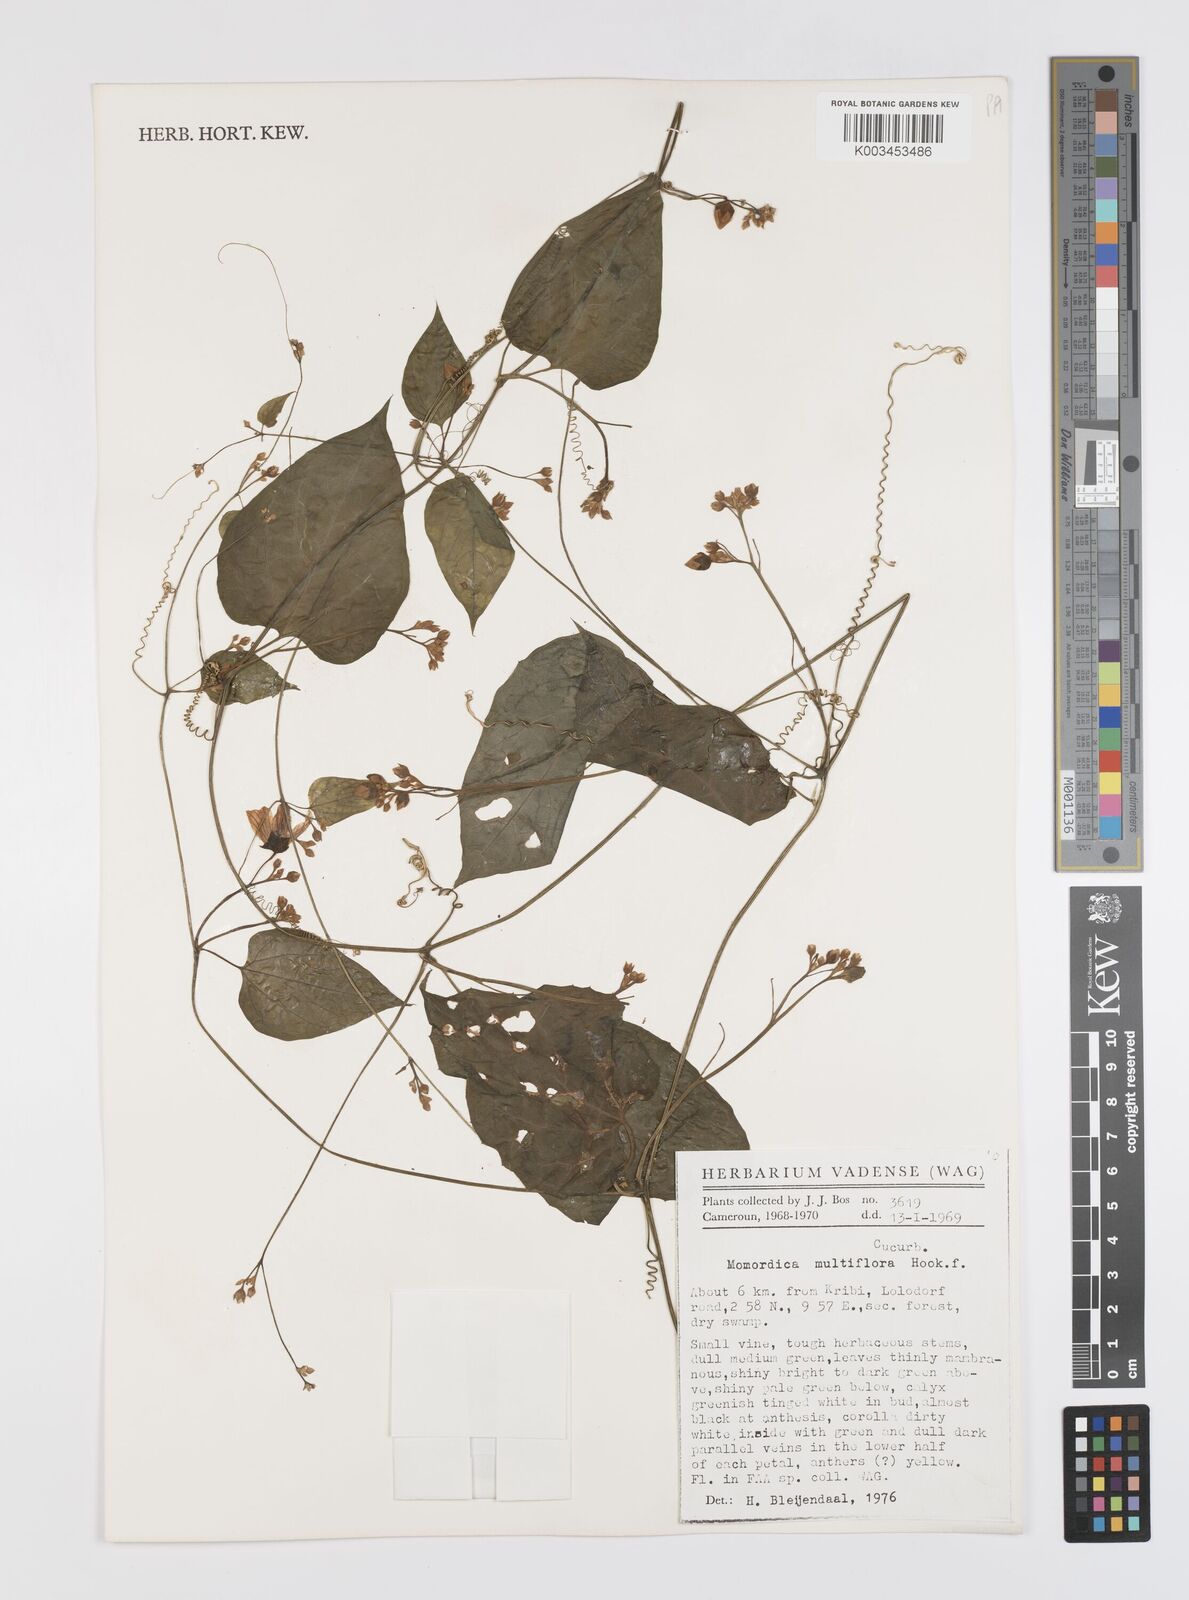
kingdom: Plantae
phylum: Tracheophyta
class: Magnoliopsida
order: Cucurbitales
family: Cucurbitaceae
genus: Momordica
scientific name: Momordica multiflora
